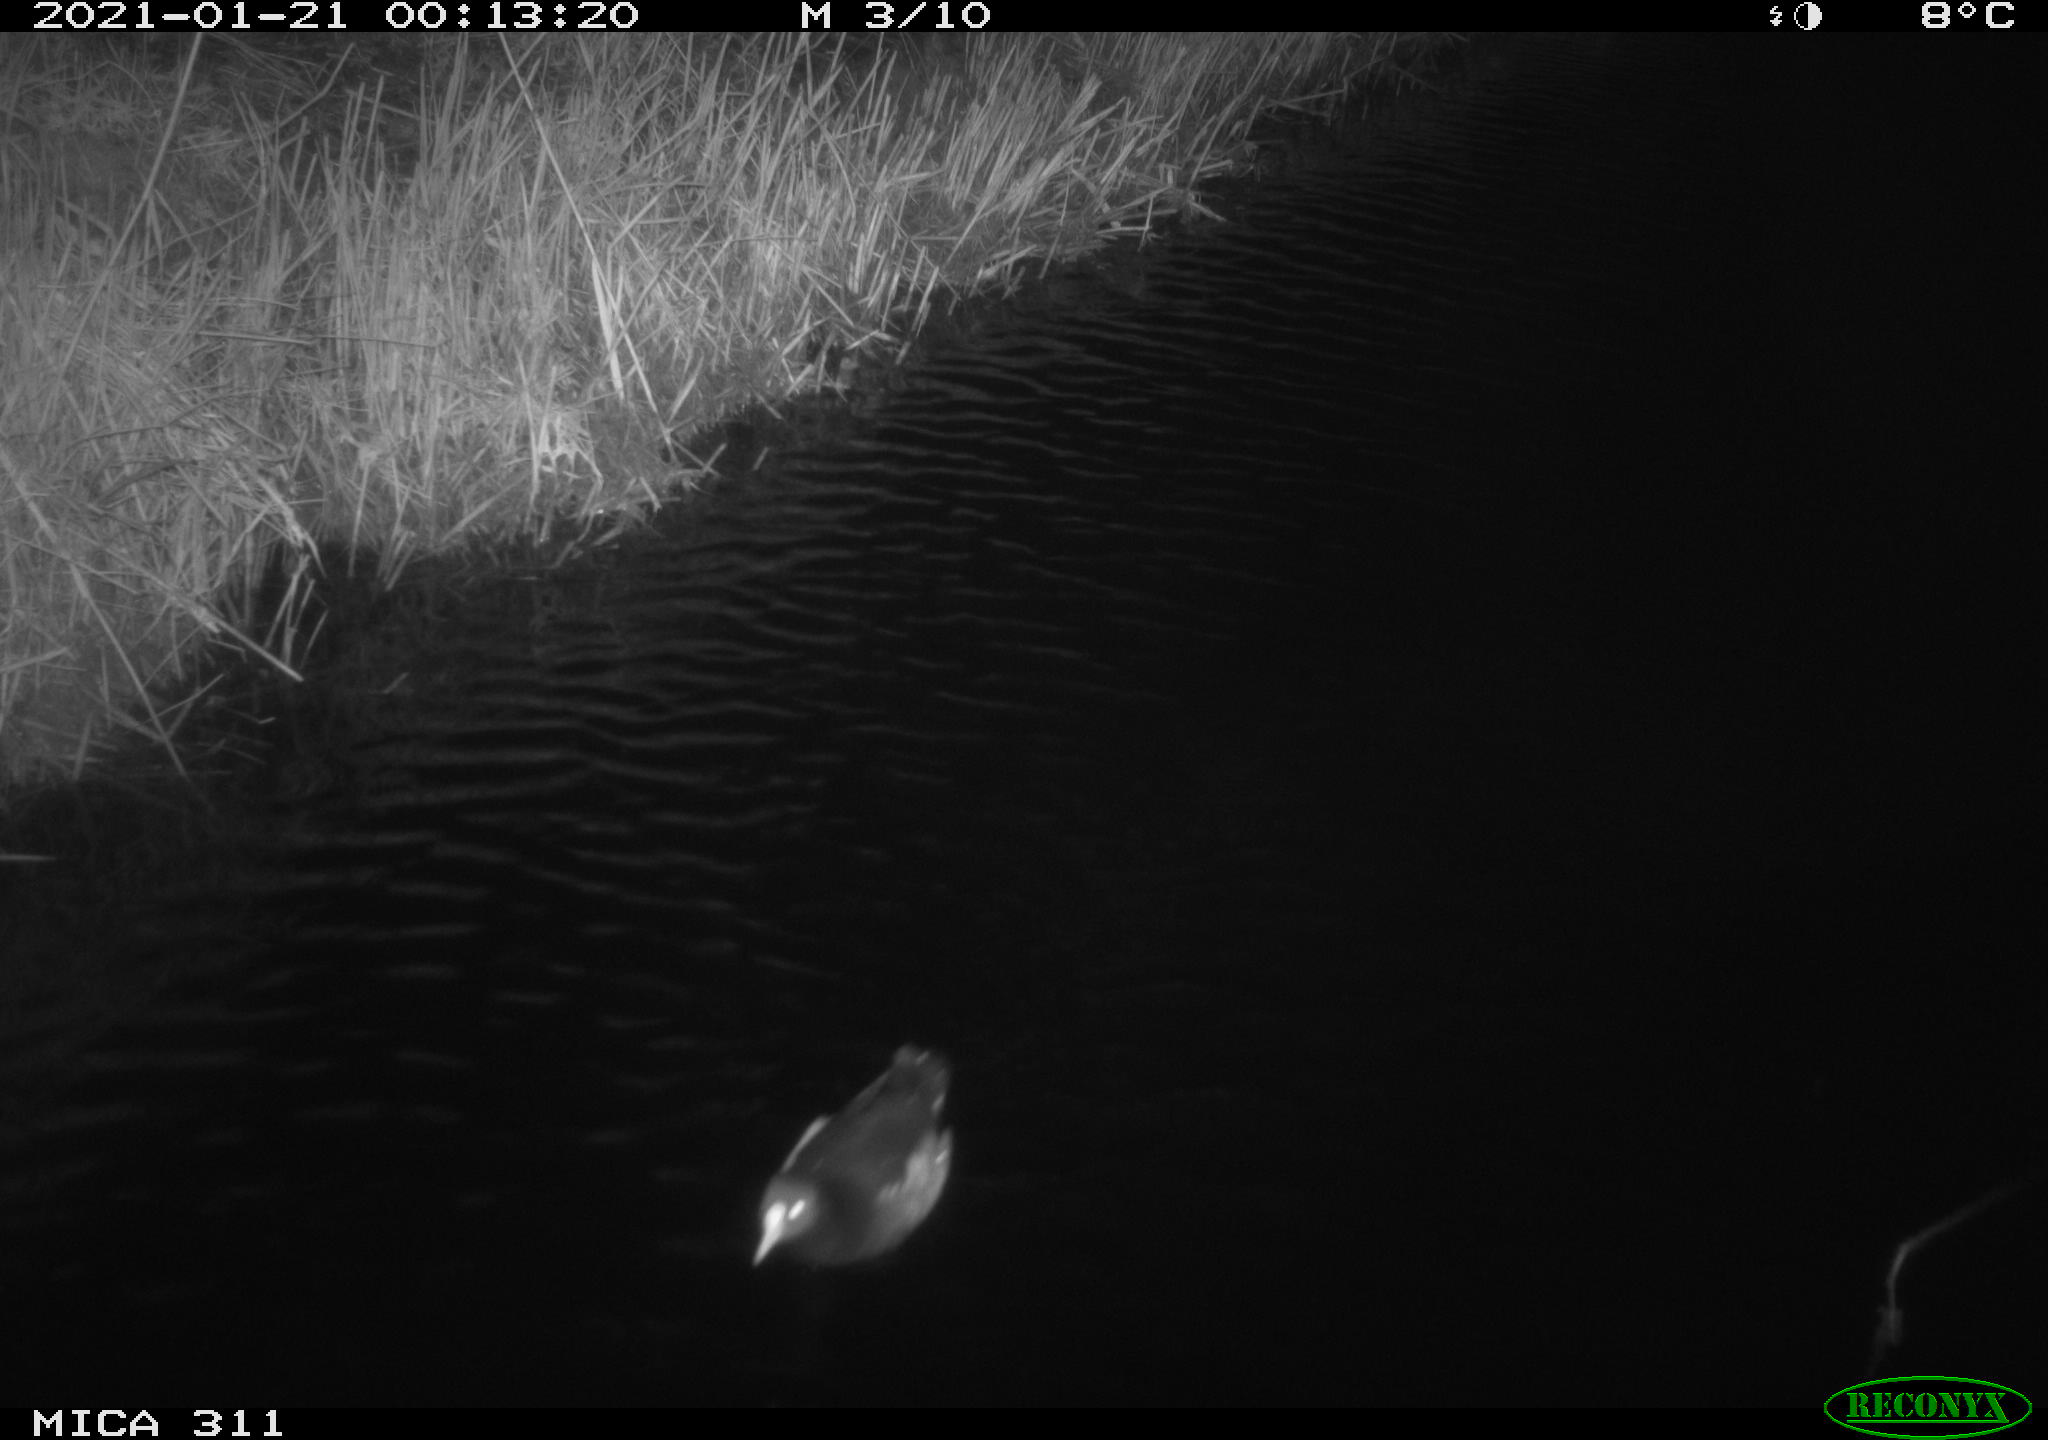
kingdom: Animalia
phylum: Chordata
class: Aves
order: Gruiformes
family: Rallidae
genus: Gallinula
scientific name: Gallinula chloropus
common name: Common moorhen
